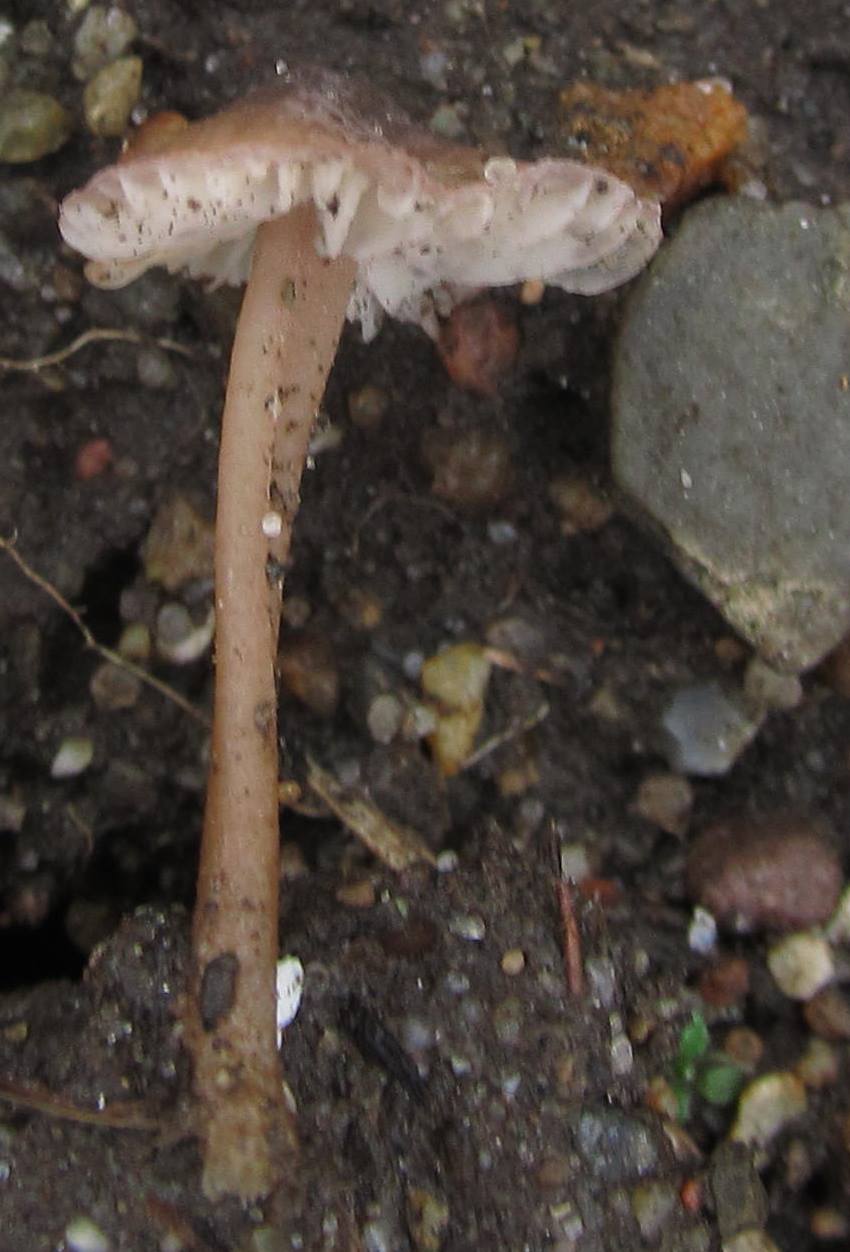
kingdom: Fungi
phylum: Basidiomycota
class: Agaricomycetes
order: Agaricales
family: Mycenaceae
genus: Mycena
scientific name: Mycena olivaceomarginata
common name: brunægget huesvamp
